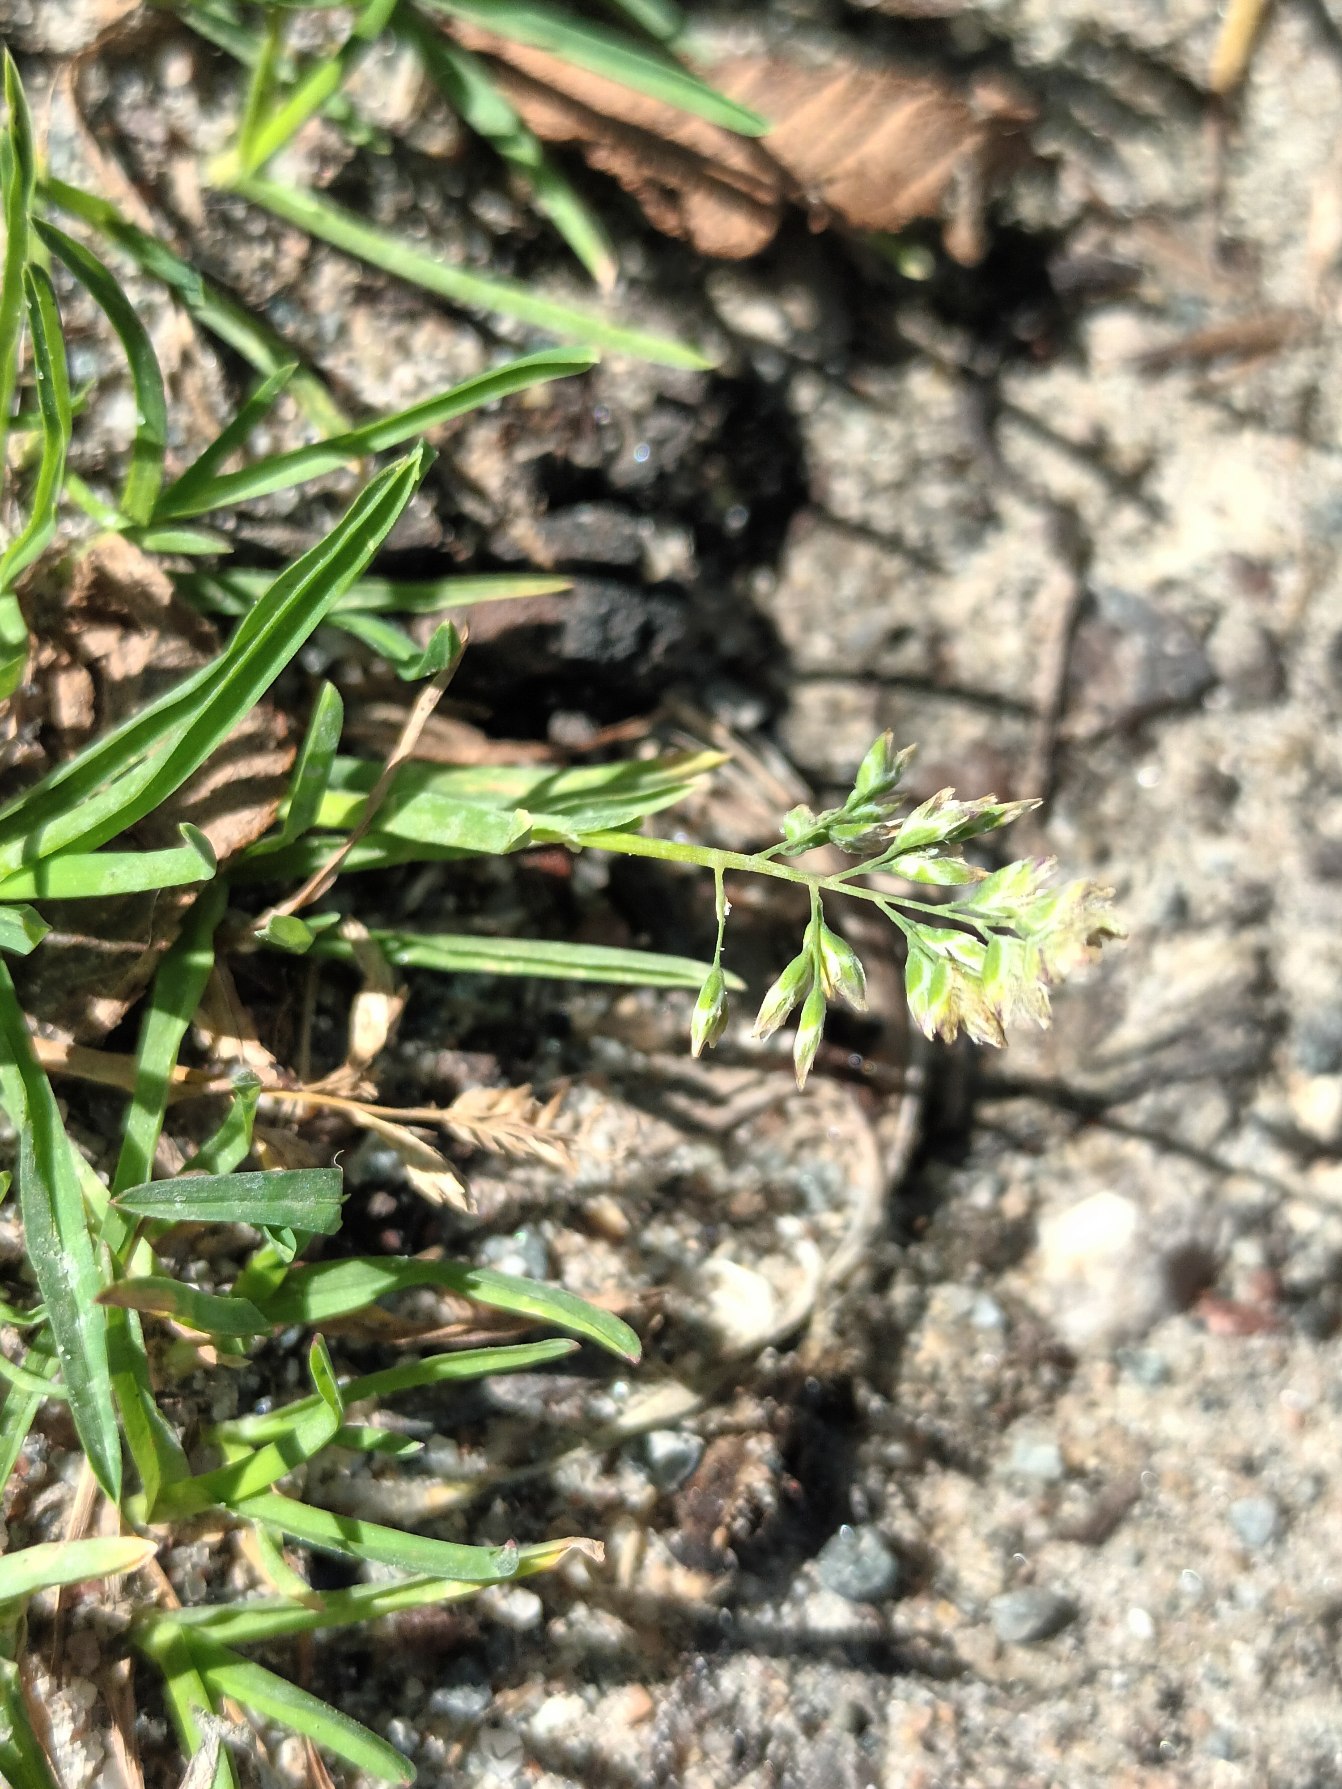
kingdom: Plantae
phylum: Tracheophyta
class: Liliopsida
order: Poales
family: Poaceae
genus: Poa
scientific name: Poa annua
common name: Enårig rapgræs
